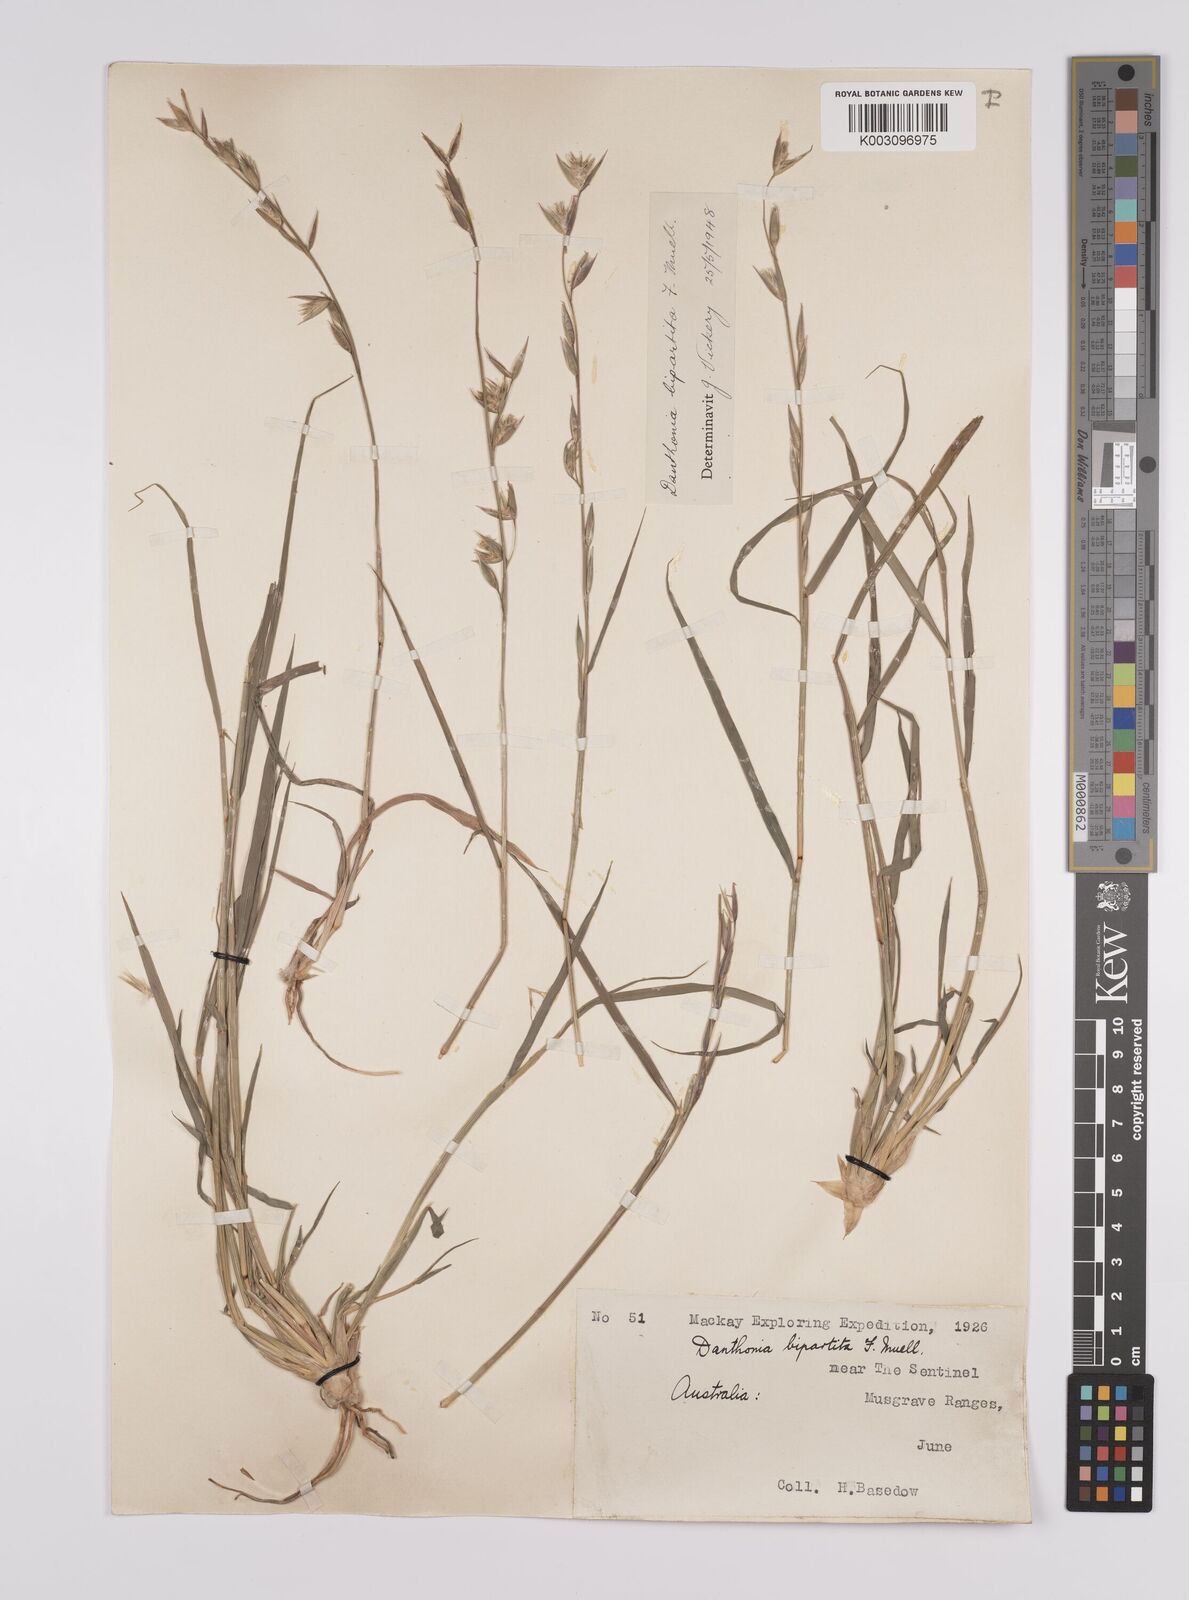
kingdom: Plantae
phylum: Tracheophyta
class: Liliopsida
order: Poales
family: Poaceae
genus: Monachather
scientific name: Monachather paradoxus
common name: Bandicoot grass
